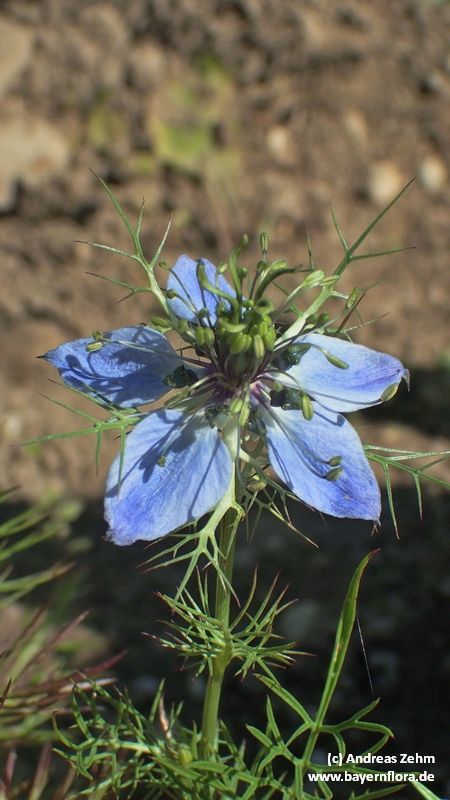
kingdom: Plantae
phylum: Tracheophyta
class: Magnoliopsida
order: Ranunculales
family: Ranunculaceae
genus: Nigella
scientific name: Nigella damascena
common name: Love-in-a-mist
